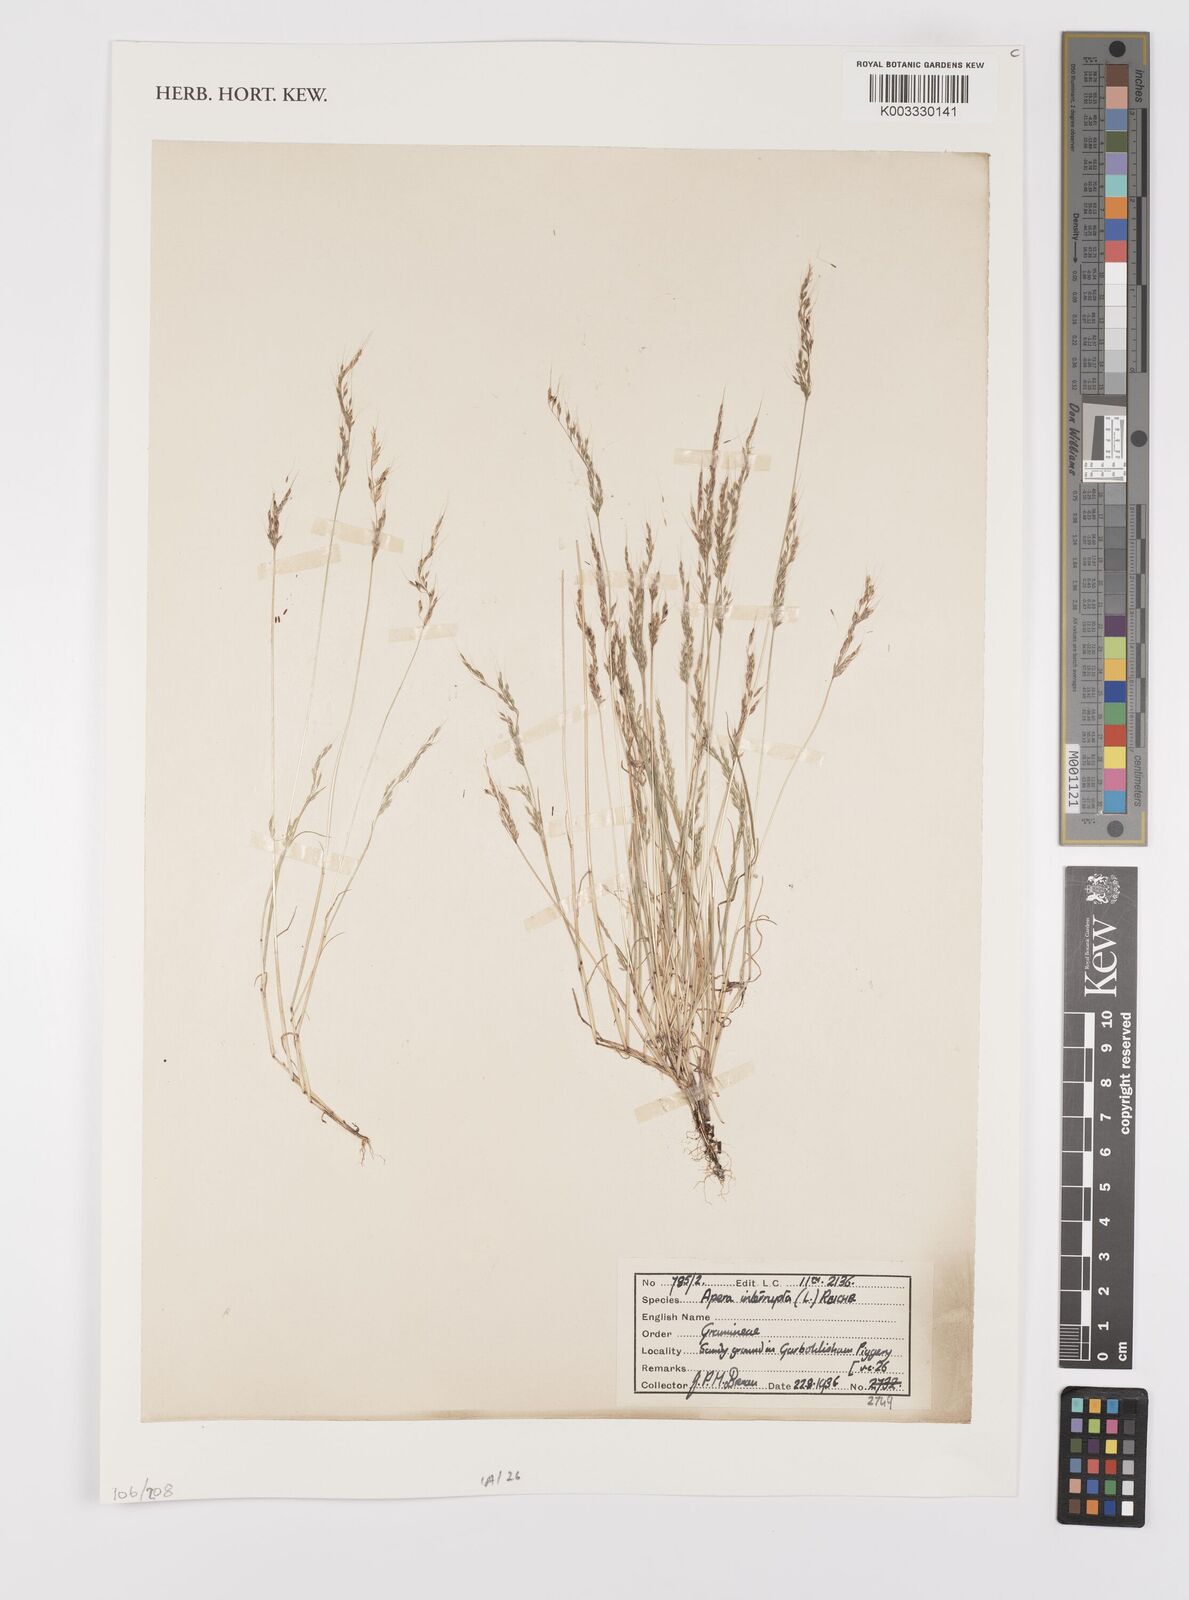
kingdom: Plantae
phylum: Tracheophyta
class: Liliopsida
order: Poales
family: Poaceae
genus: Apera
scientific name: Apera interrupta
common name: Dense silky-bent
